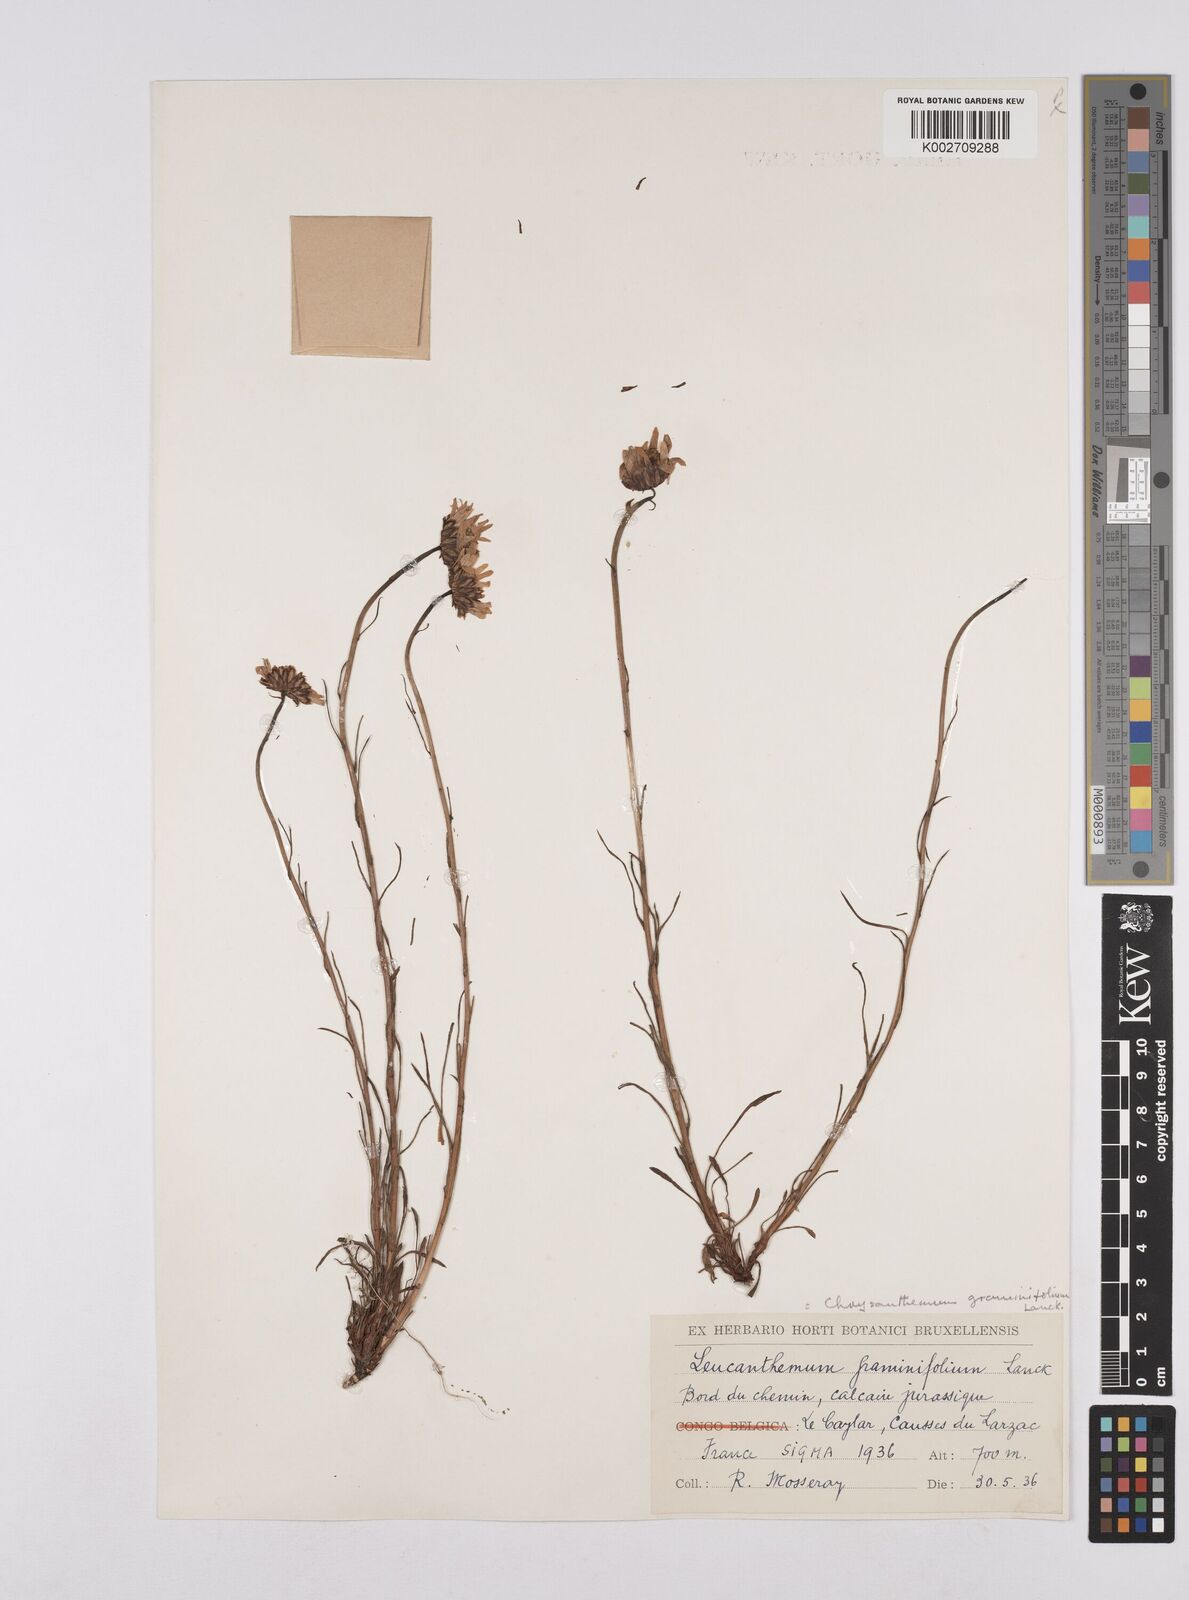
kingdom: Plantae
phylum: Tracheophyta
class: Magnoliopsida
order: Asterales
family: Asteraceae
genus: Leucanthemum
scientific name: Leucanthemum chloroticum
